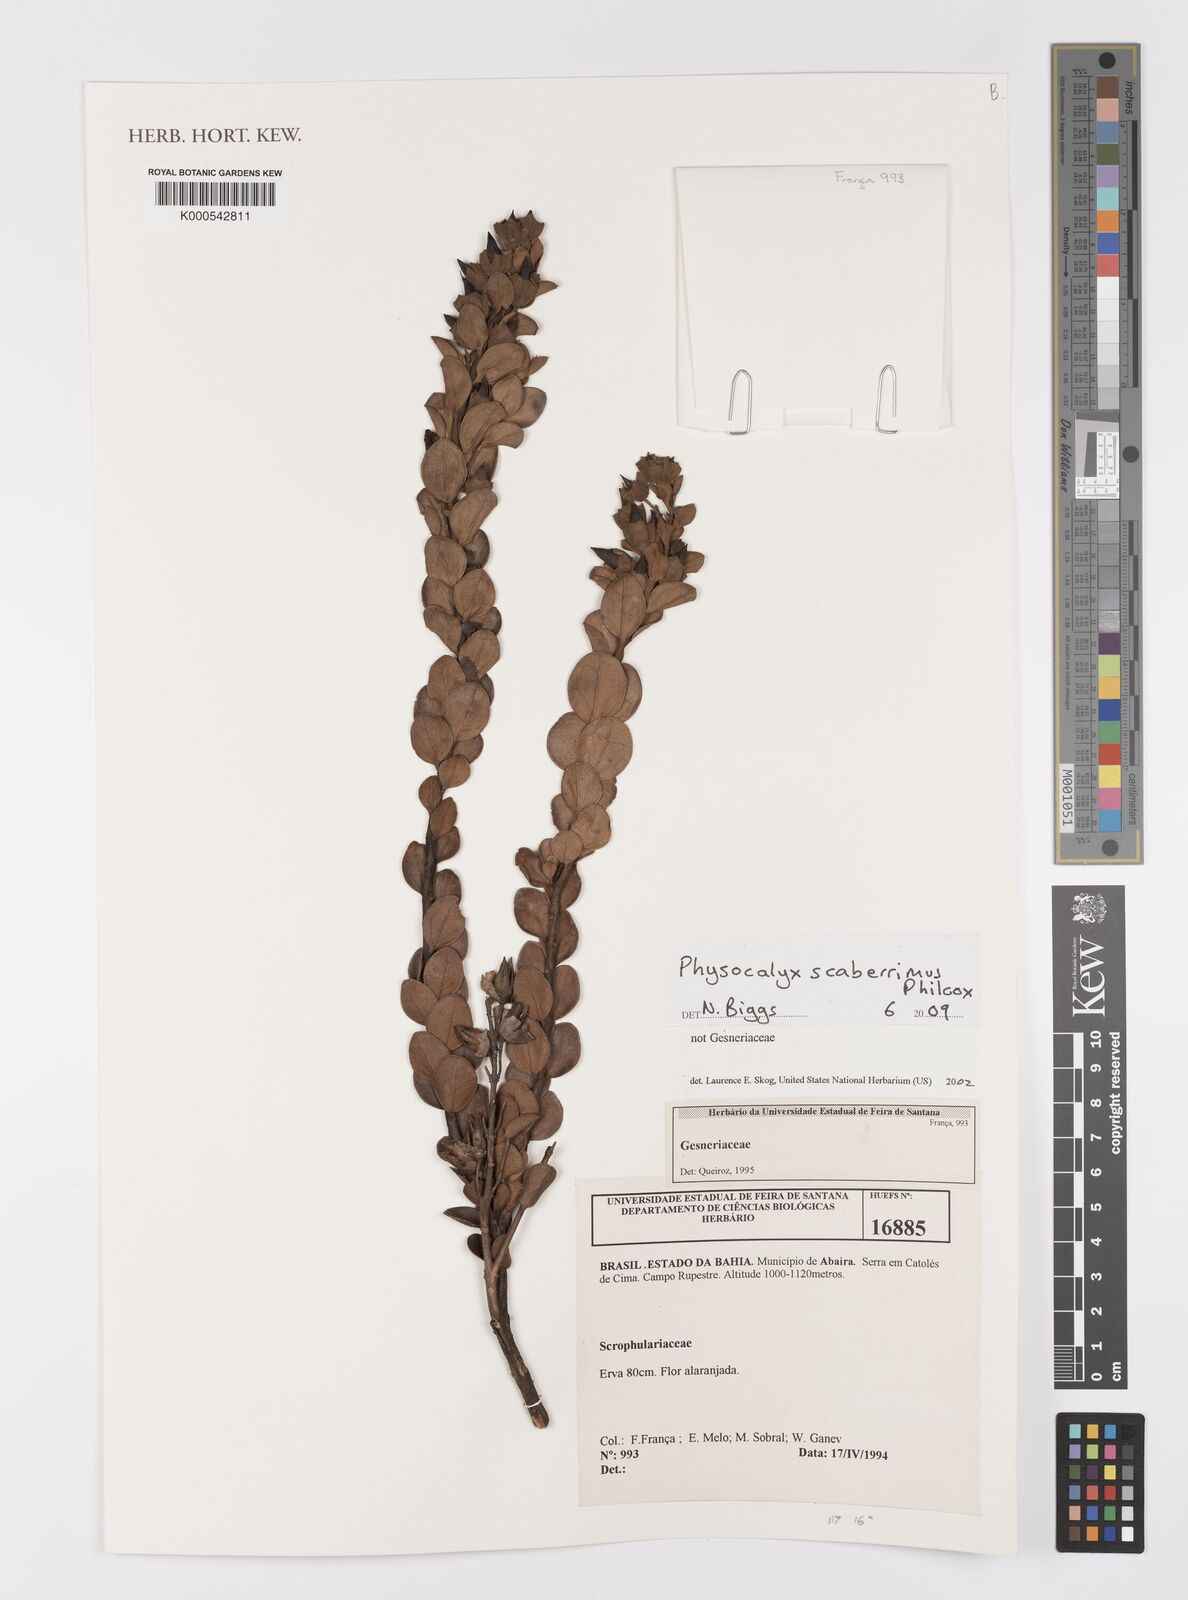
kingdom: Plantae
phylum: Tracheophyta
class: Magnoliopsida
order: Lamiales
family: Orobanchaceae
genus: Physocalyx
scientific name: Physocalyx scaberrimus
